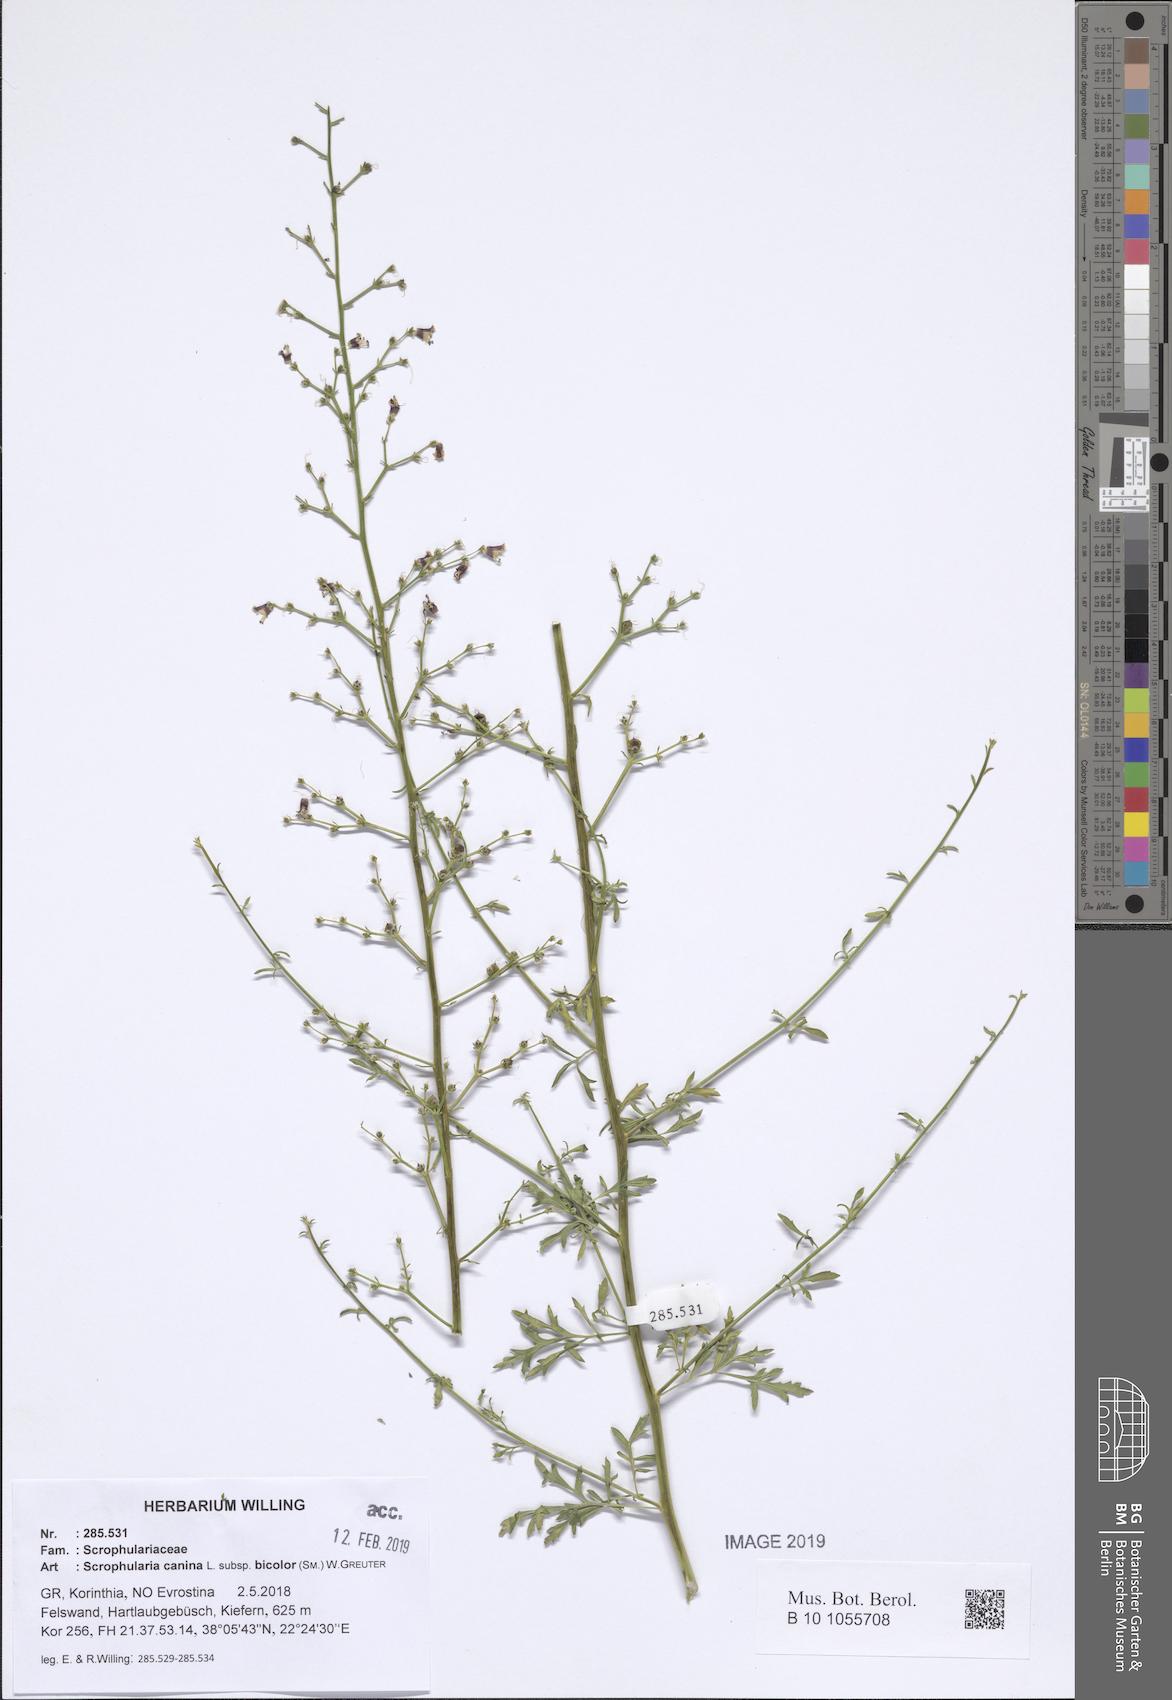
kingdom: Plantae
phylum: Tracheophyta
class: Magnoliopsida
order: Lamiales
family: Scrophulariaceae
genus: Scrophularia
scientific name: Scrophularia canina
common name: French figwort
